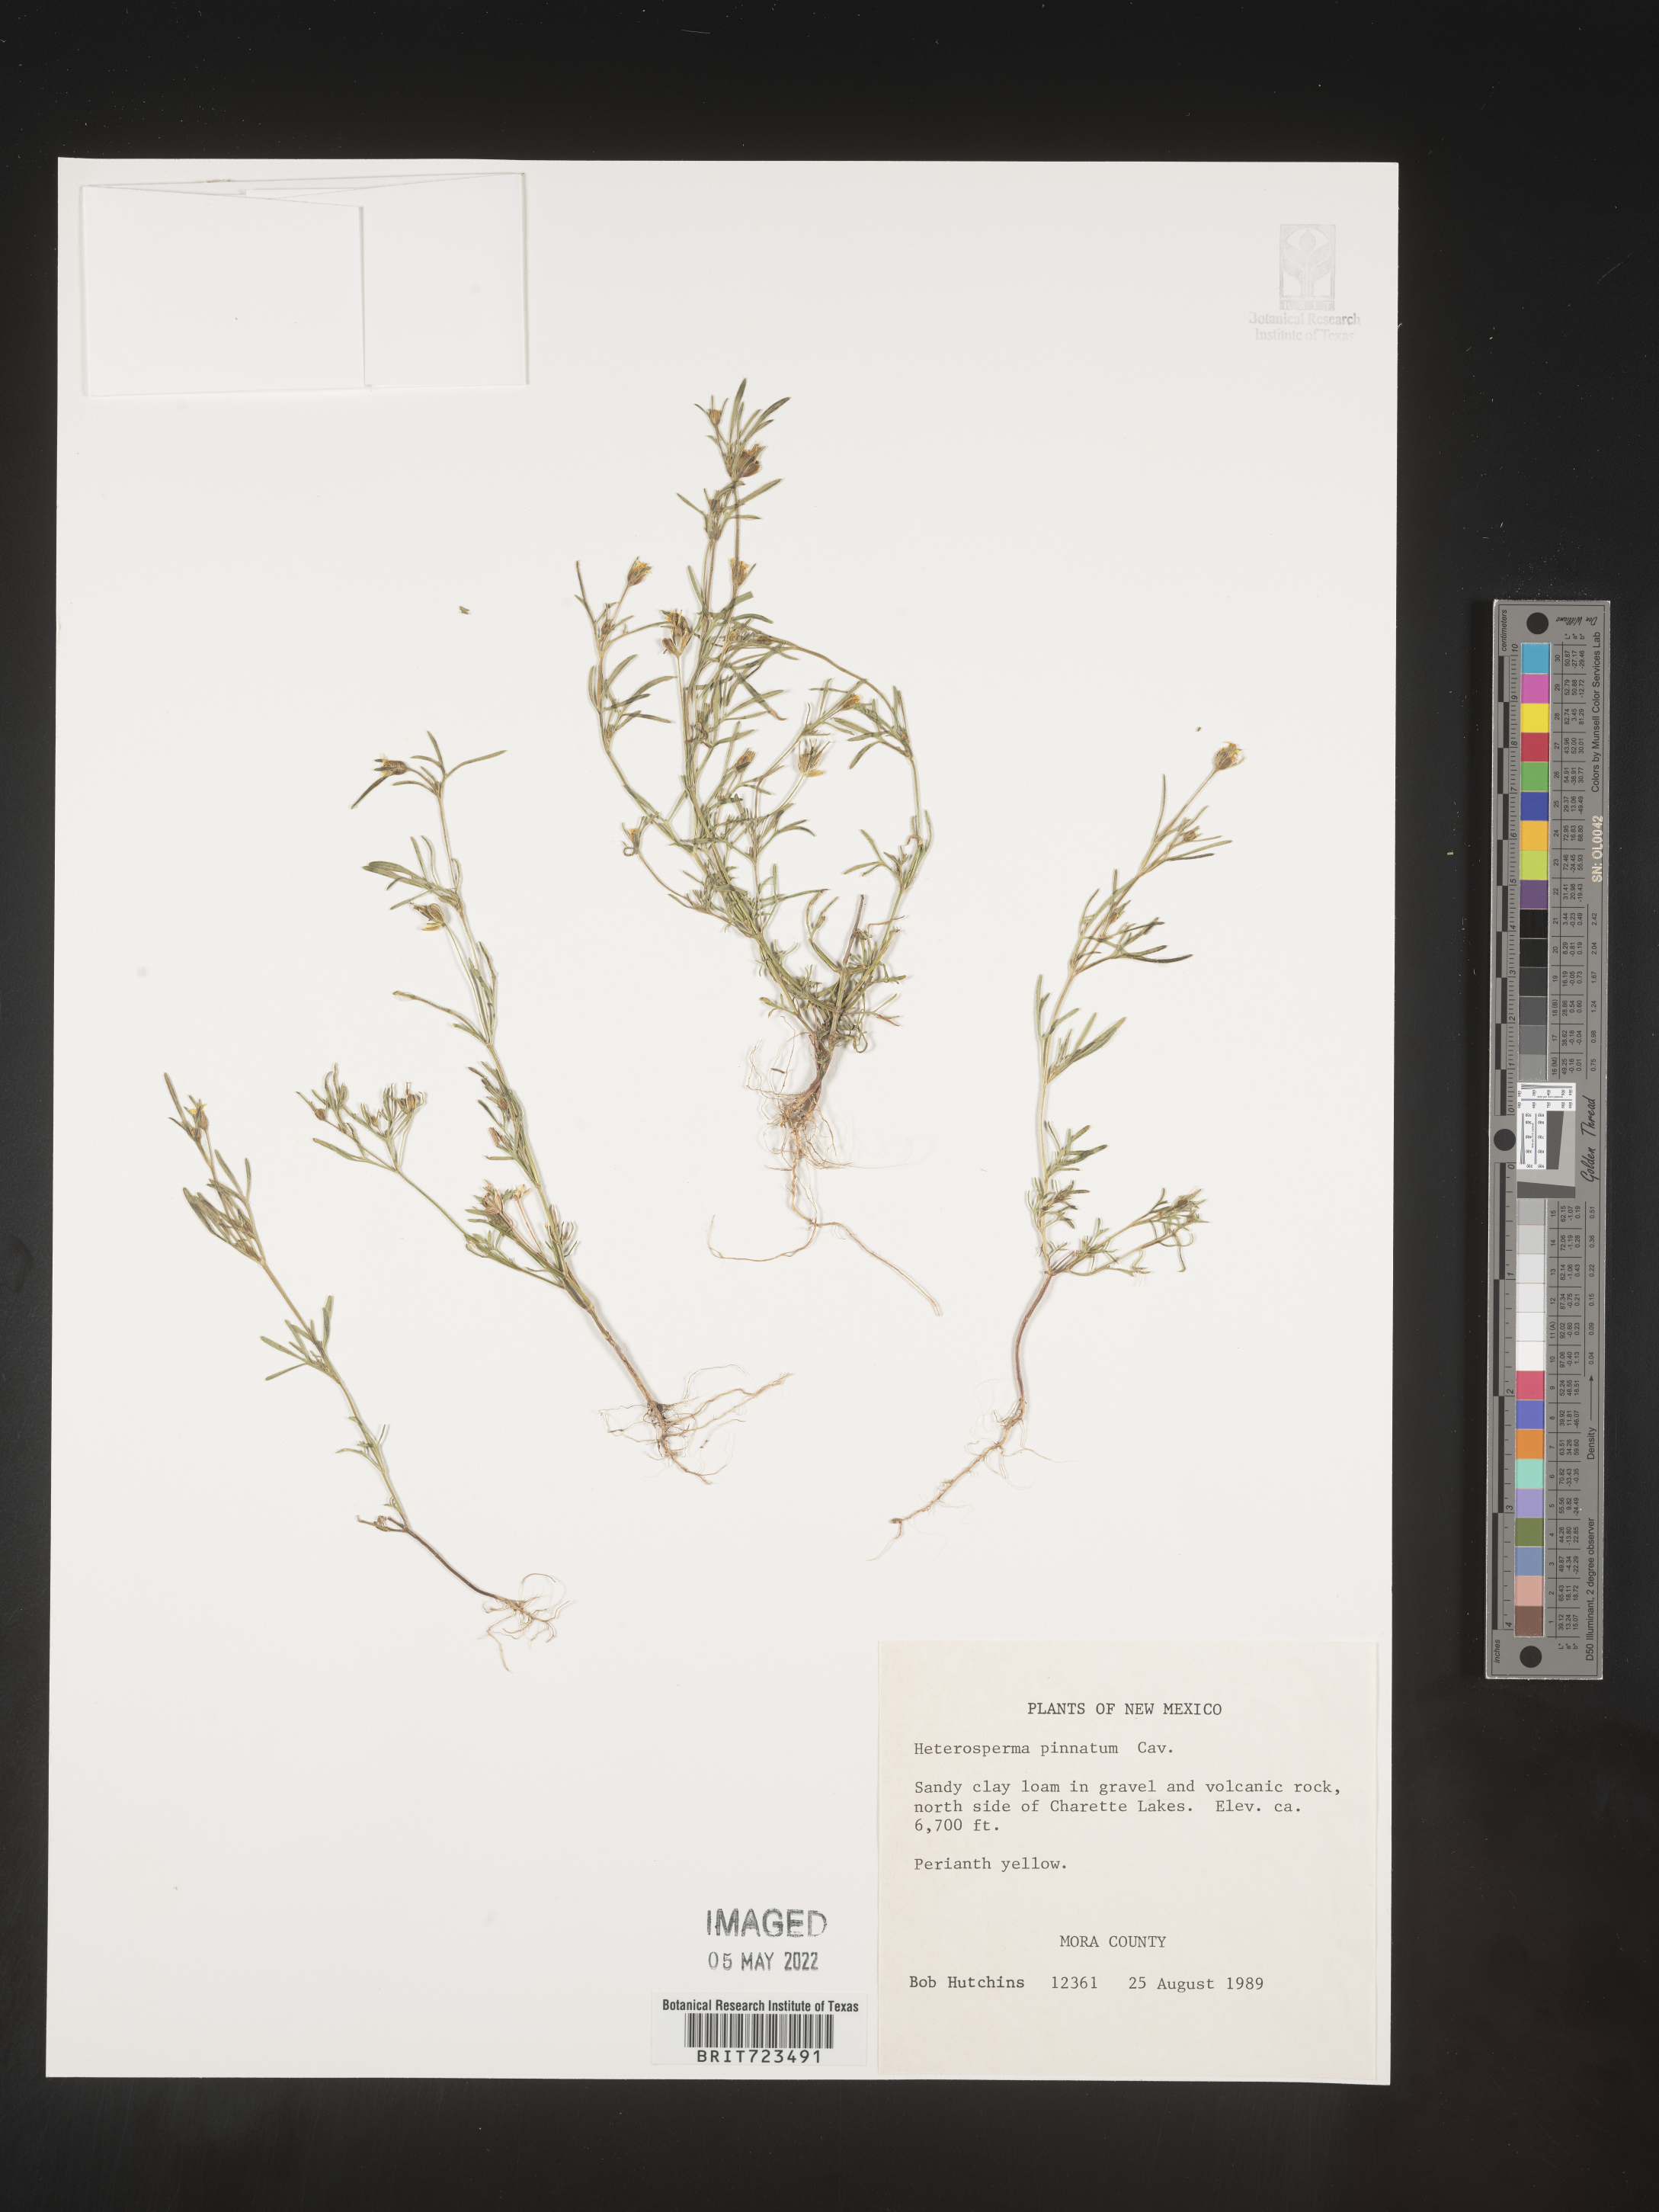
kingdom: Plantae
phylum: Tracheophyta
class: Magnoliopsida
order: Asterales
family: Asteraceae
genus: Heterosperma
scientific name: Heterosperma
